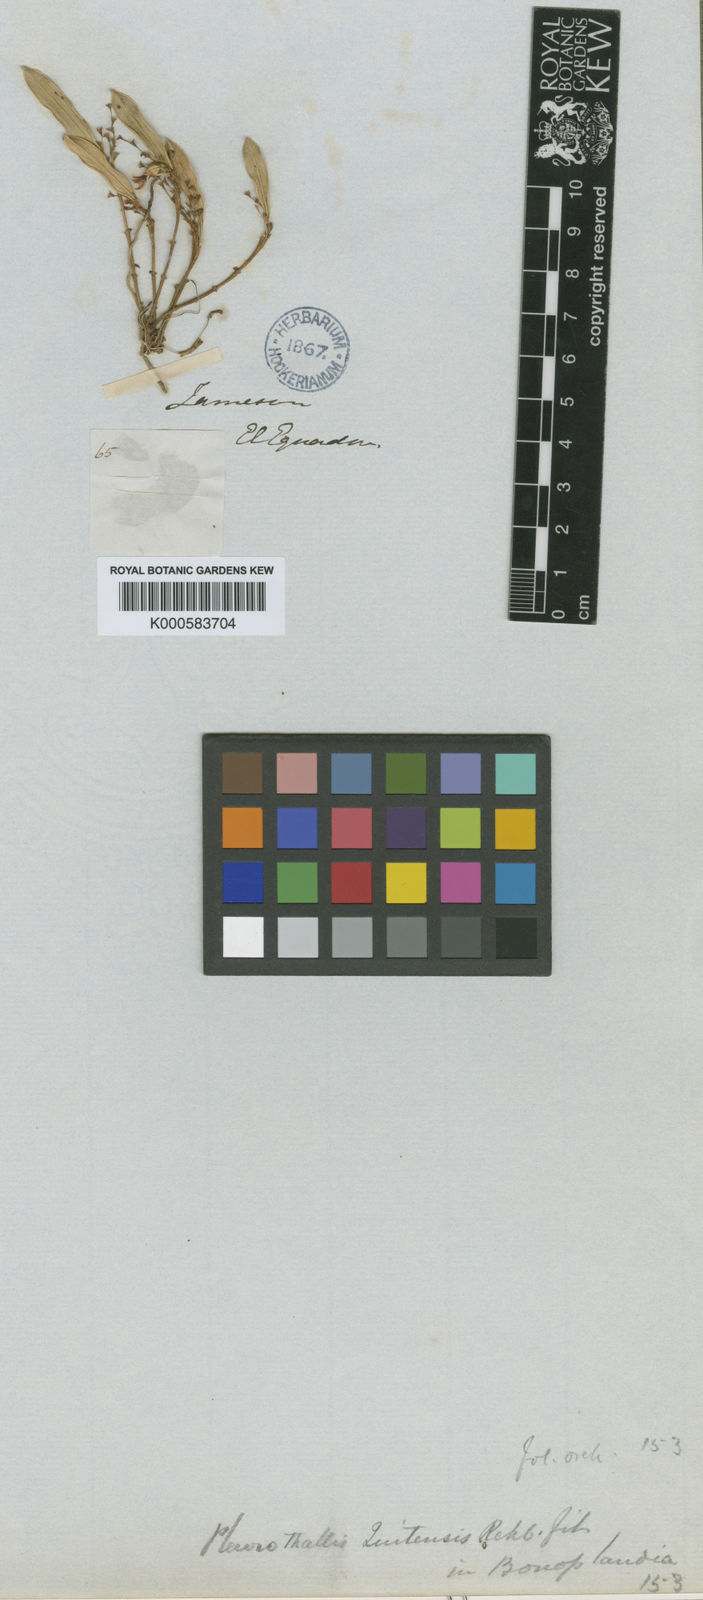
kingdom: Plantae
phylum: Tracheophyta
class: Liliopsida
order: Asparagales
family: Orchidaceae
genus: Trichosalpinx
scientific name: Trichosalpinx quitensis
